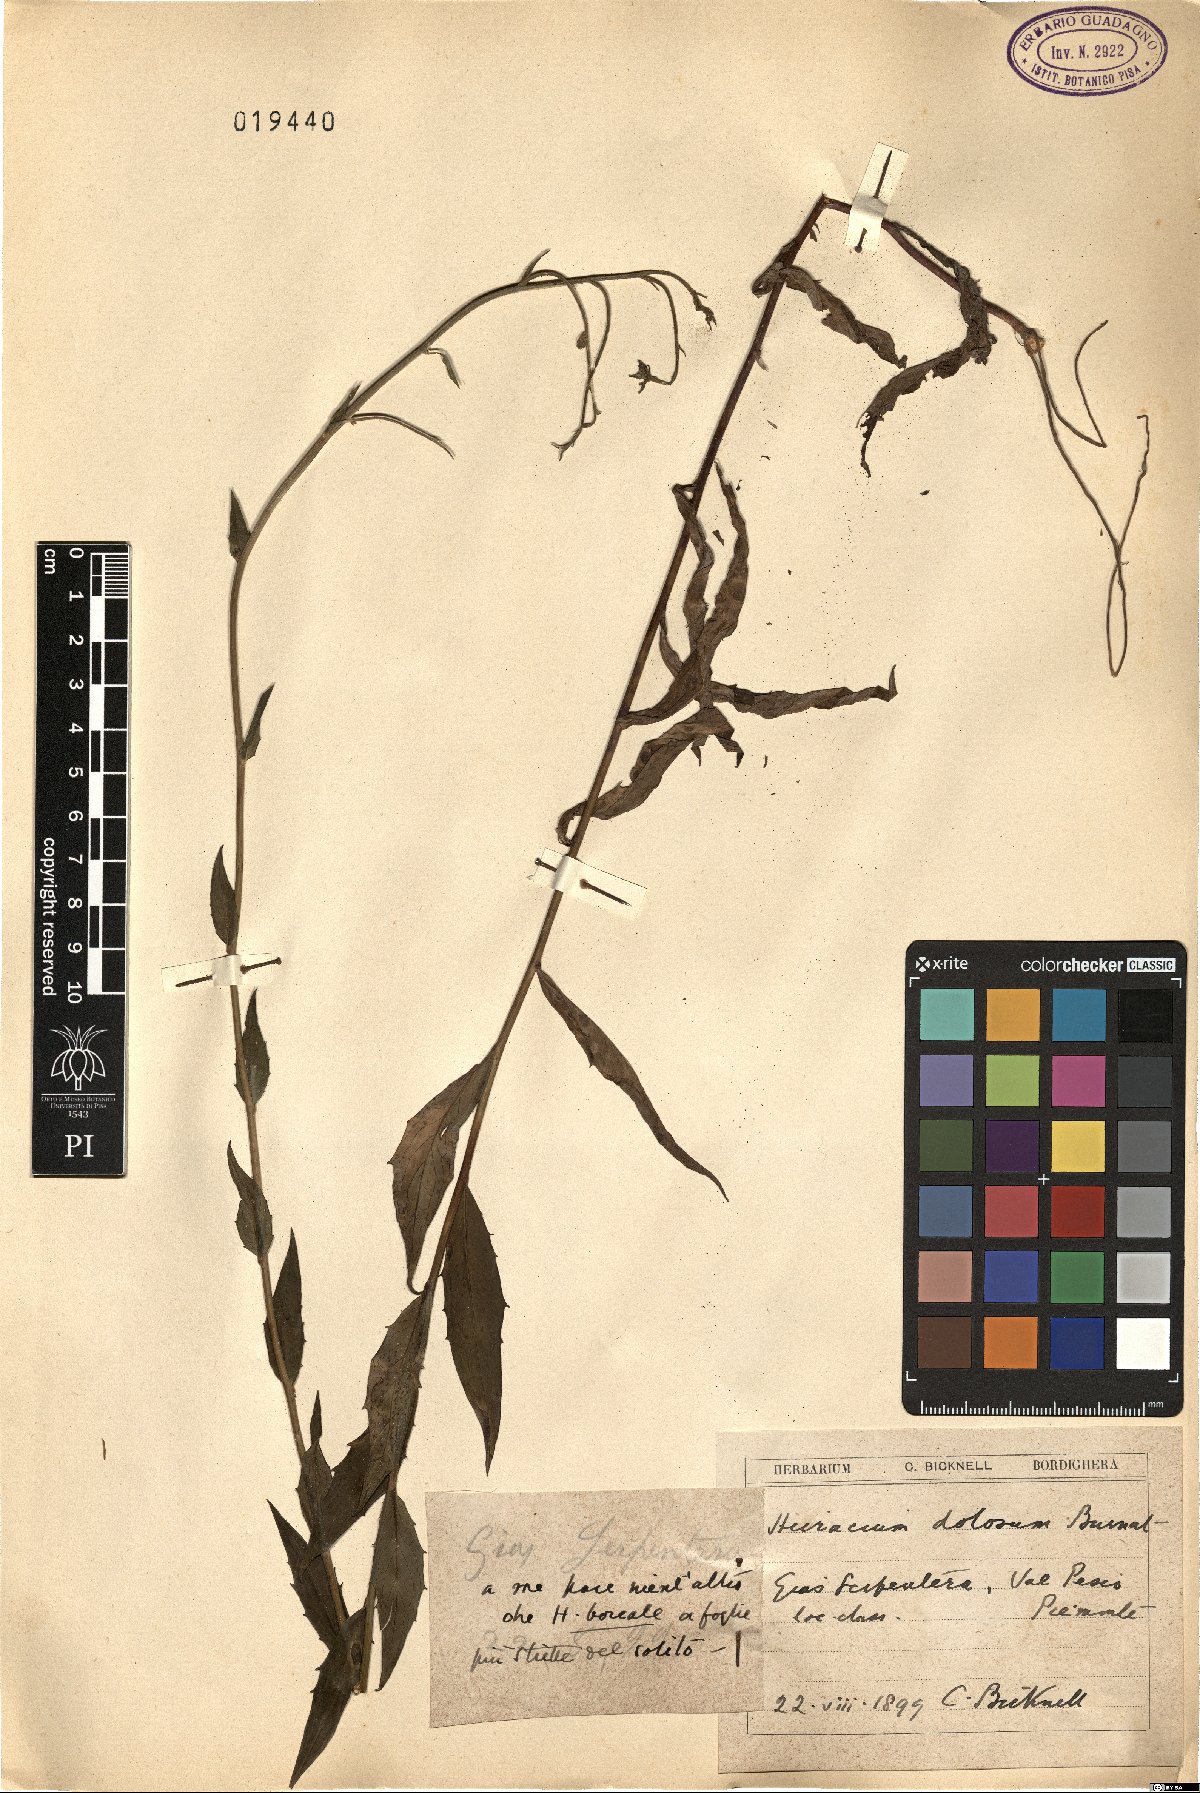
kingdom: Plantae
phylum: Tracheophyta
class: Magnoliopsida
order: Asterales
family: Asteraceae
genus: Hieracium
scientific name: Hieracium sabaudum
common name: New england hawkweed
